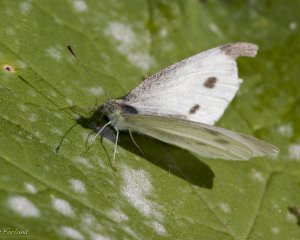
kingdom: Animalia
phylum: Arthropoda
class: Insecta
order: Lepidoptera
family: Pieridae
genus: Pieris
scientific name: Pieris rapae
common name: Cabbage White
